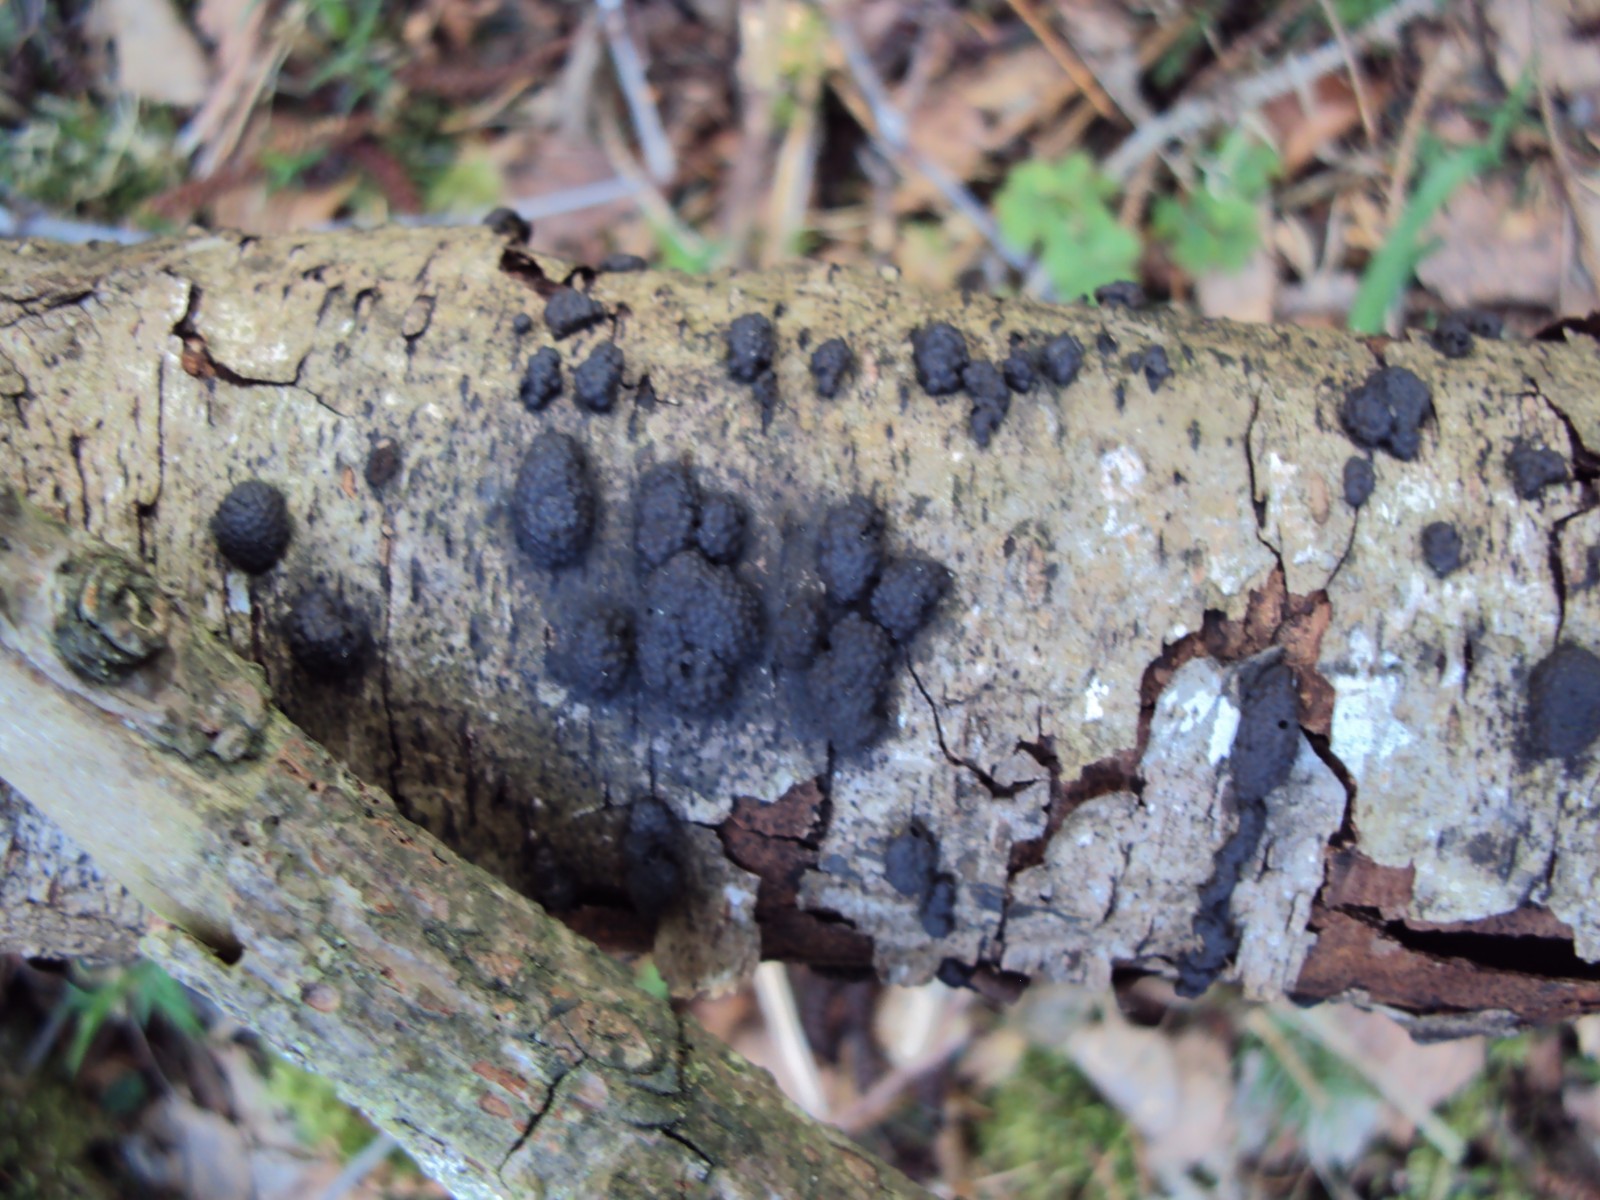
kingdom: Fungi
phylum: Ascomycota
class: Sordariomycetes
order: Xylariales
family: Hypoxylaceae
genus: Jackrogersella
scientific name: Jackrogersella multiformis
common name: foranderlig kulbær
